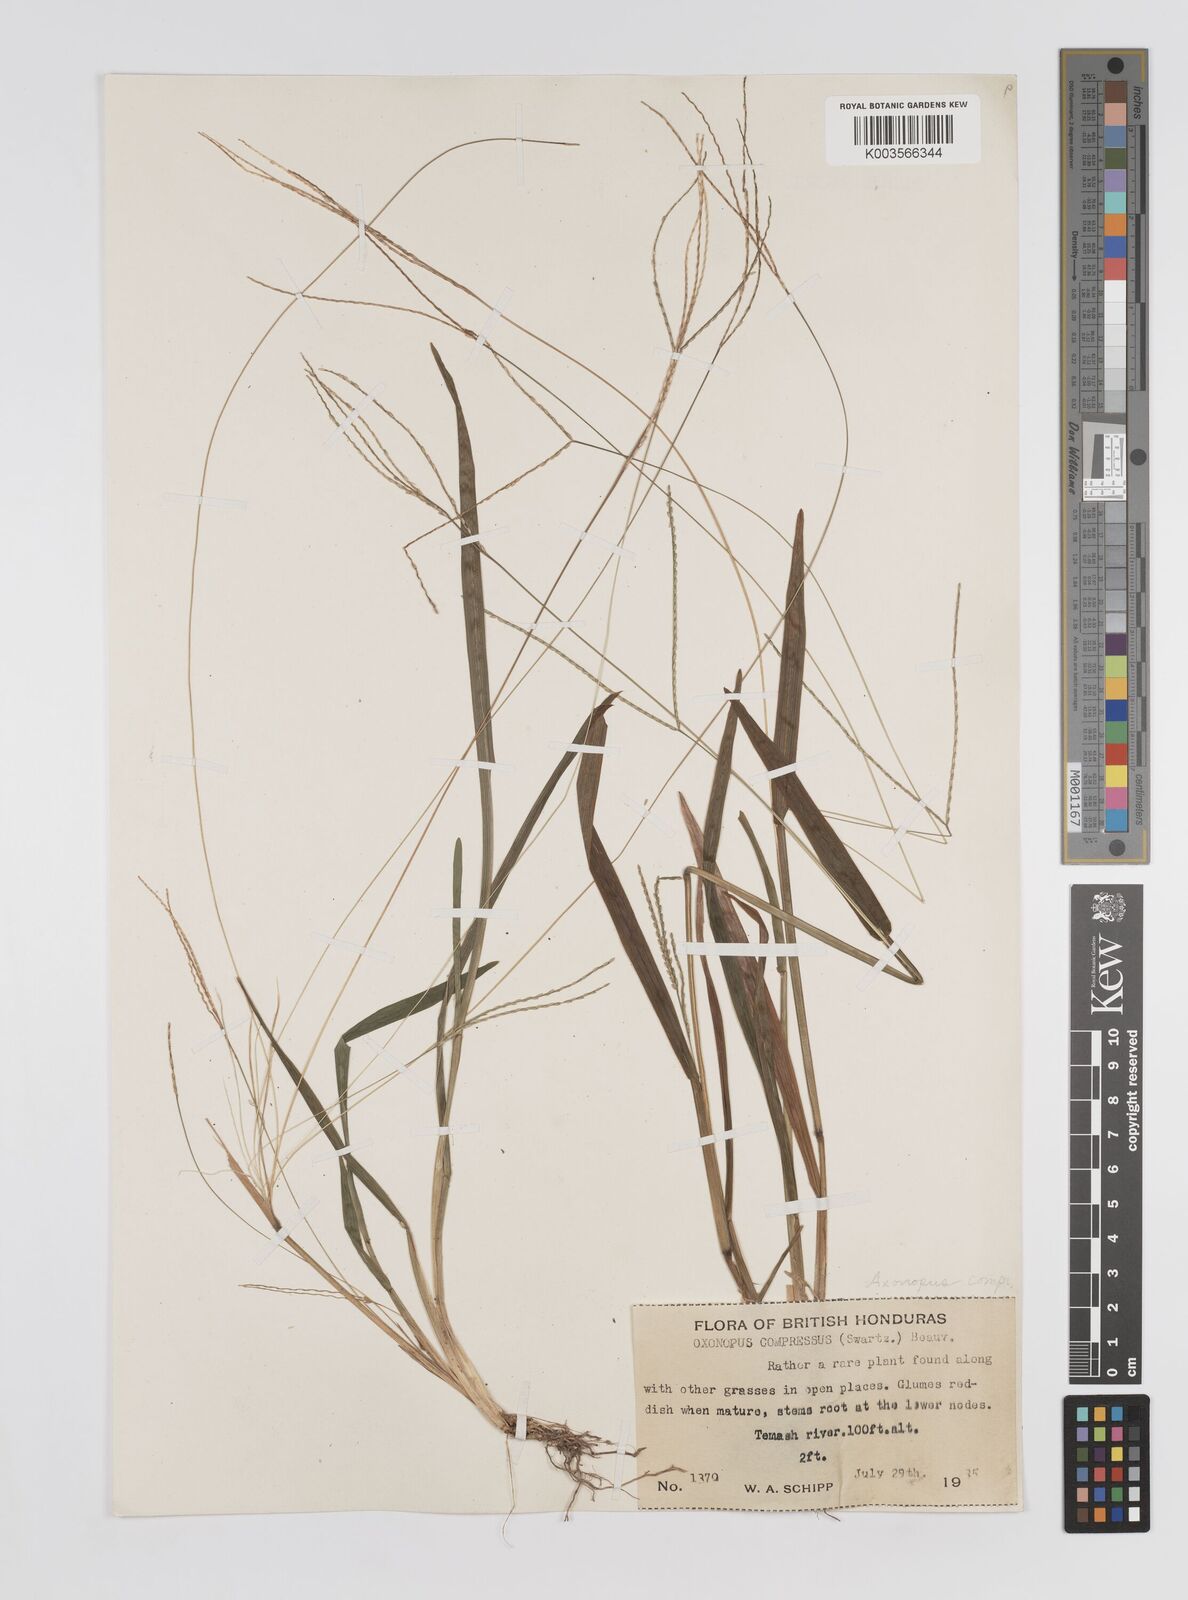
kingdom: Plantae
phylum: Tracheophyta
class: Liliopsida
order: Poales
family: Poaceae
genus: Axonopus
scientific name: Axonopus compressus
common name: American carpet grass
